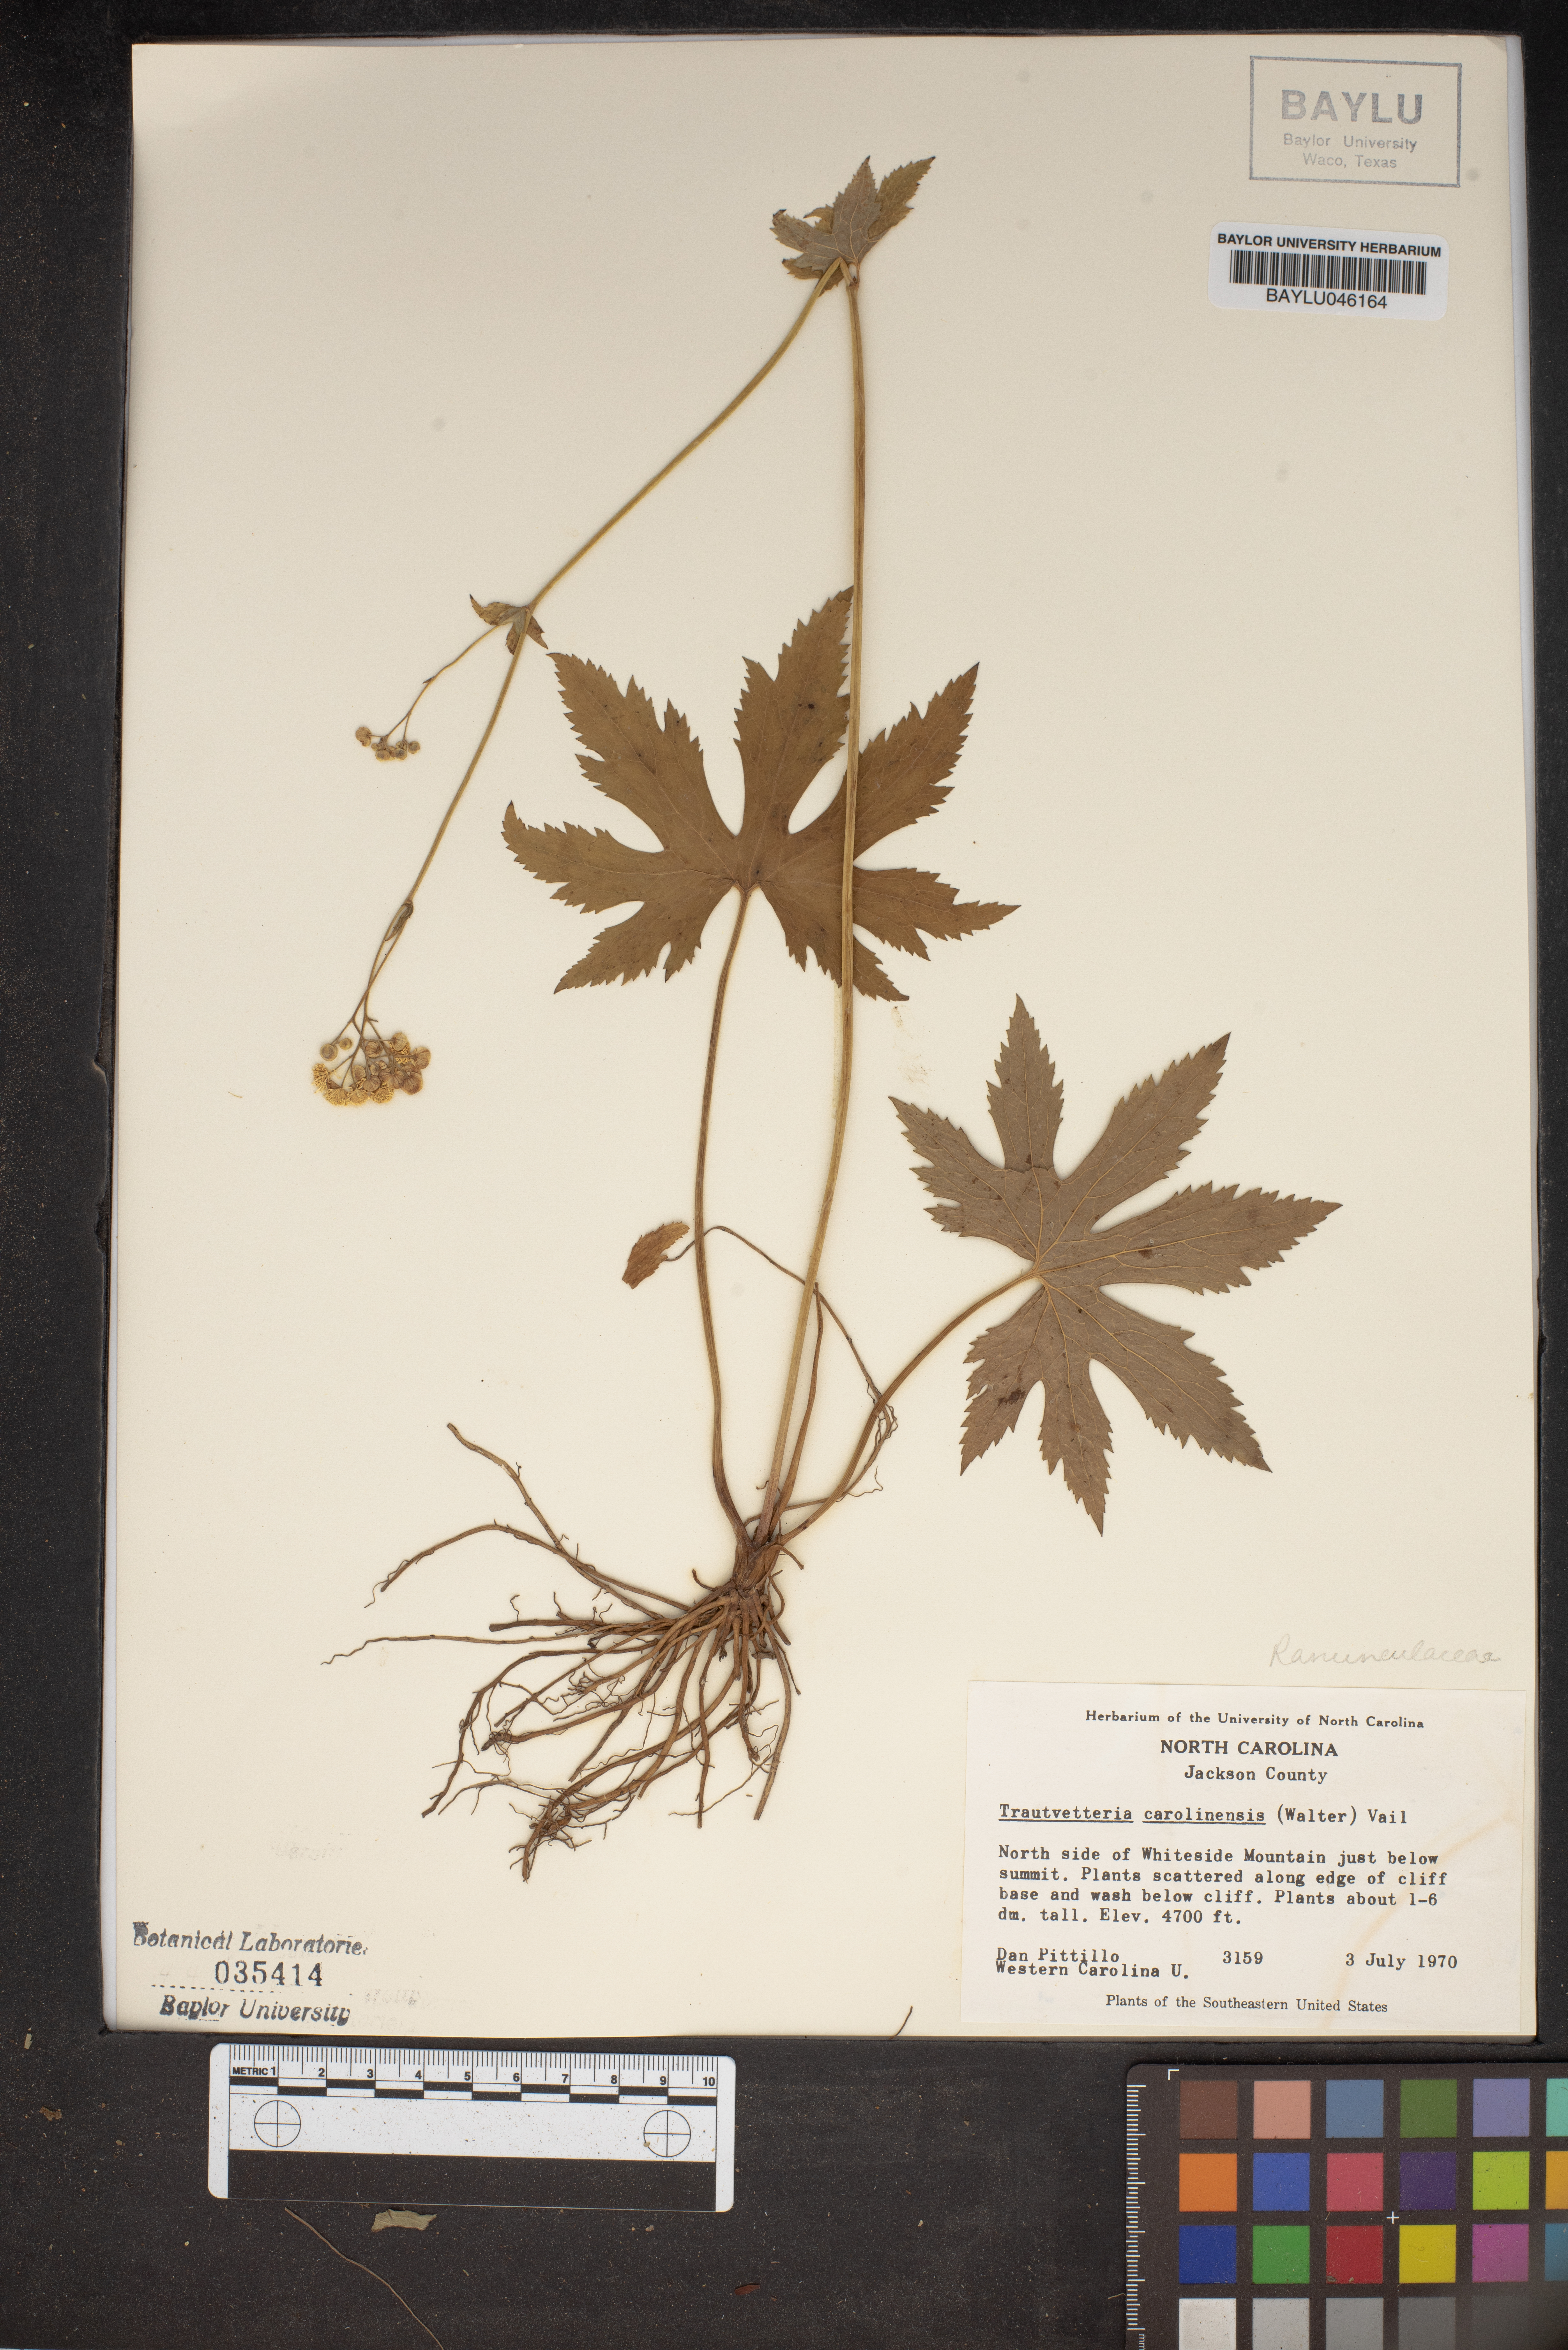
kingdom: Plantae
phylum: Tracheophyta
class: Magnoliopsida
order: Ranunculales
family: Ranunculaceae
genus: Trautvetteria
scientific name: Trautvetteria carolinensis
